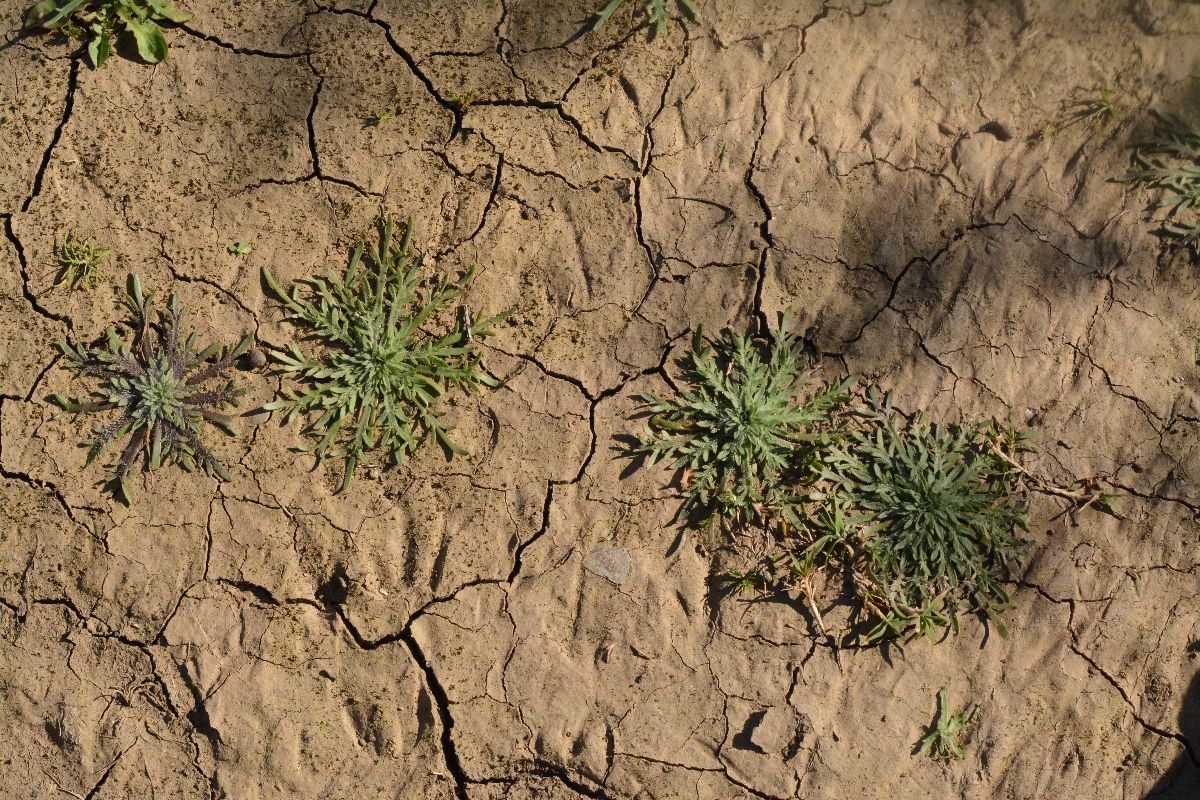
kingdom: Plantae
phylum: Tracheophyta
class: Magnoliopsida
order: Lamiales
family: Plantaginaceae
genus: Plantago
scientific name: Plantago coronopus
